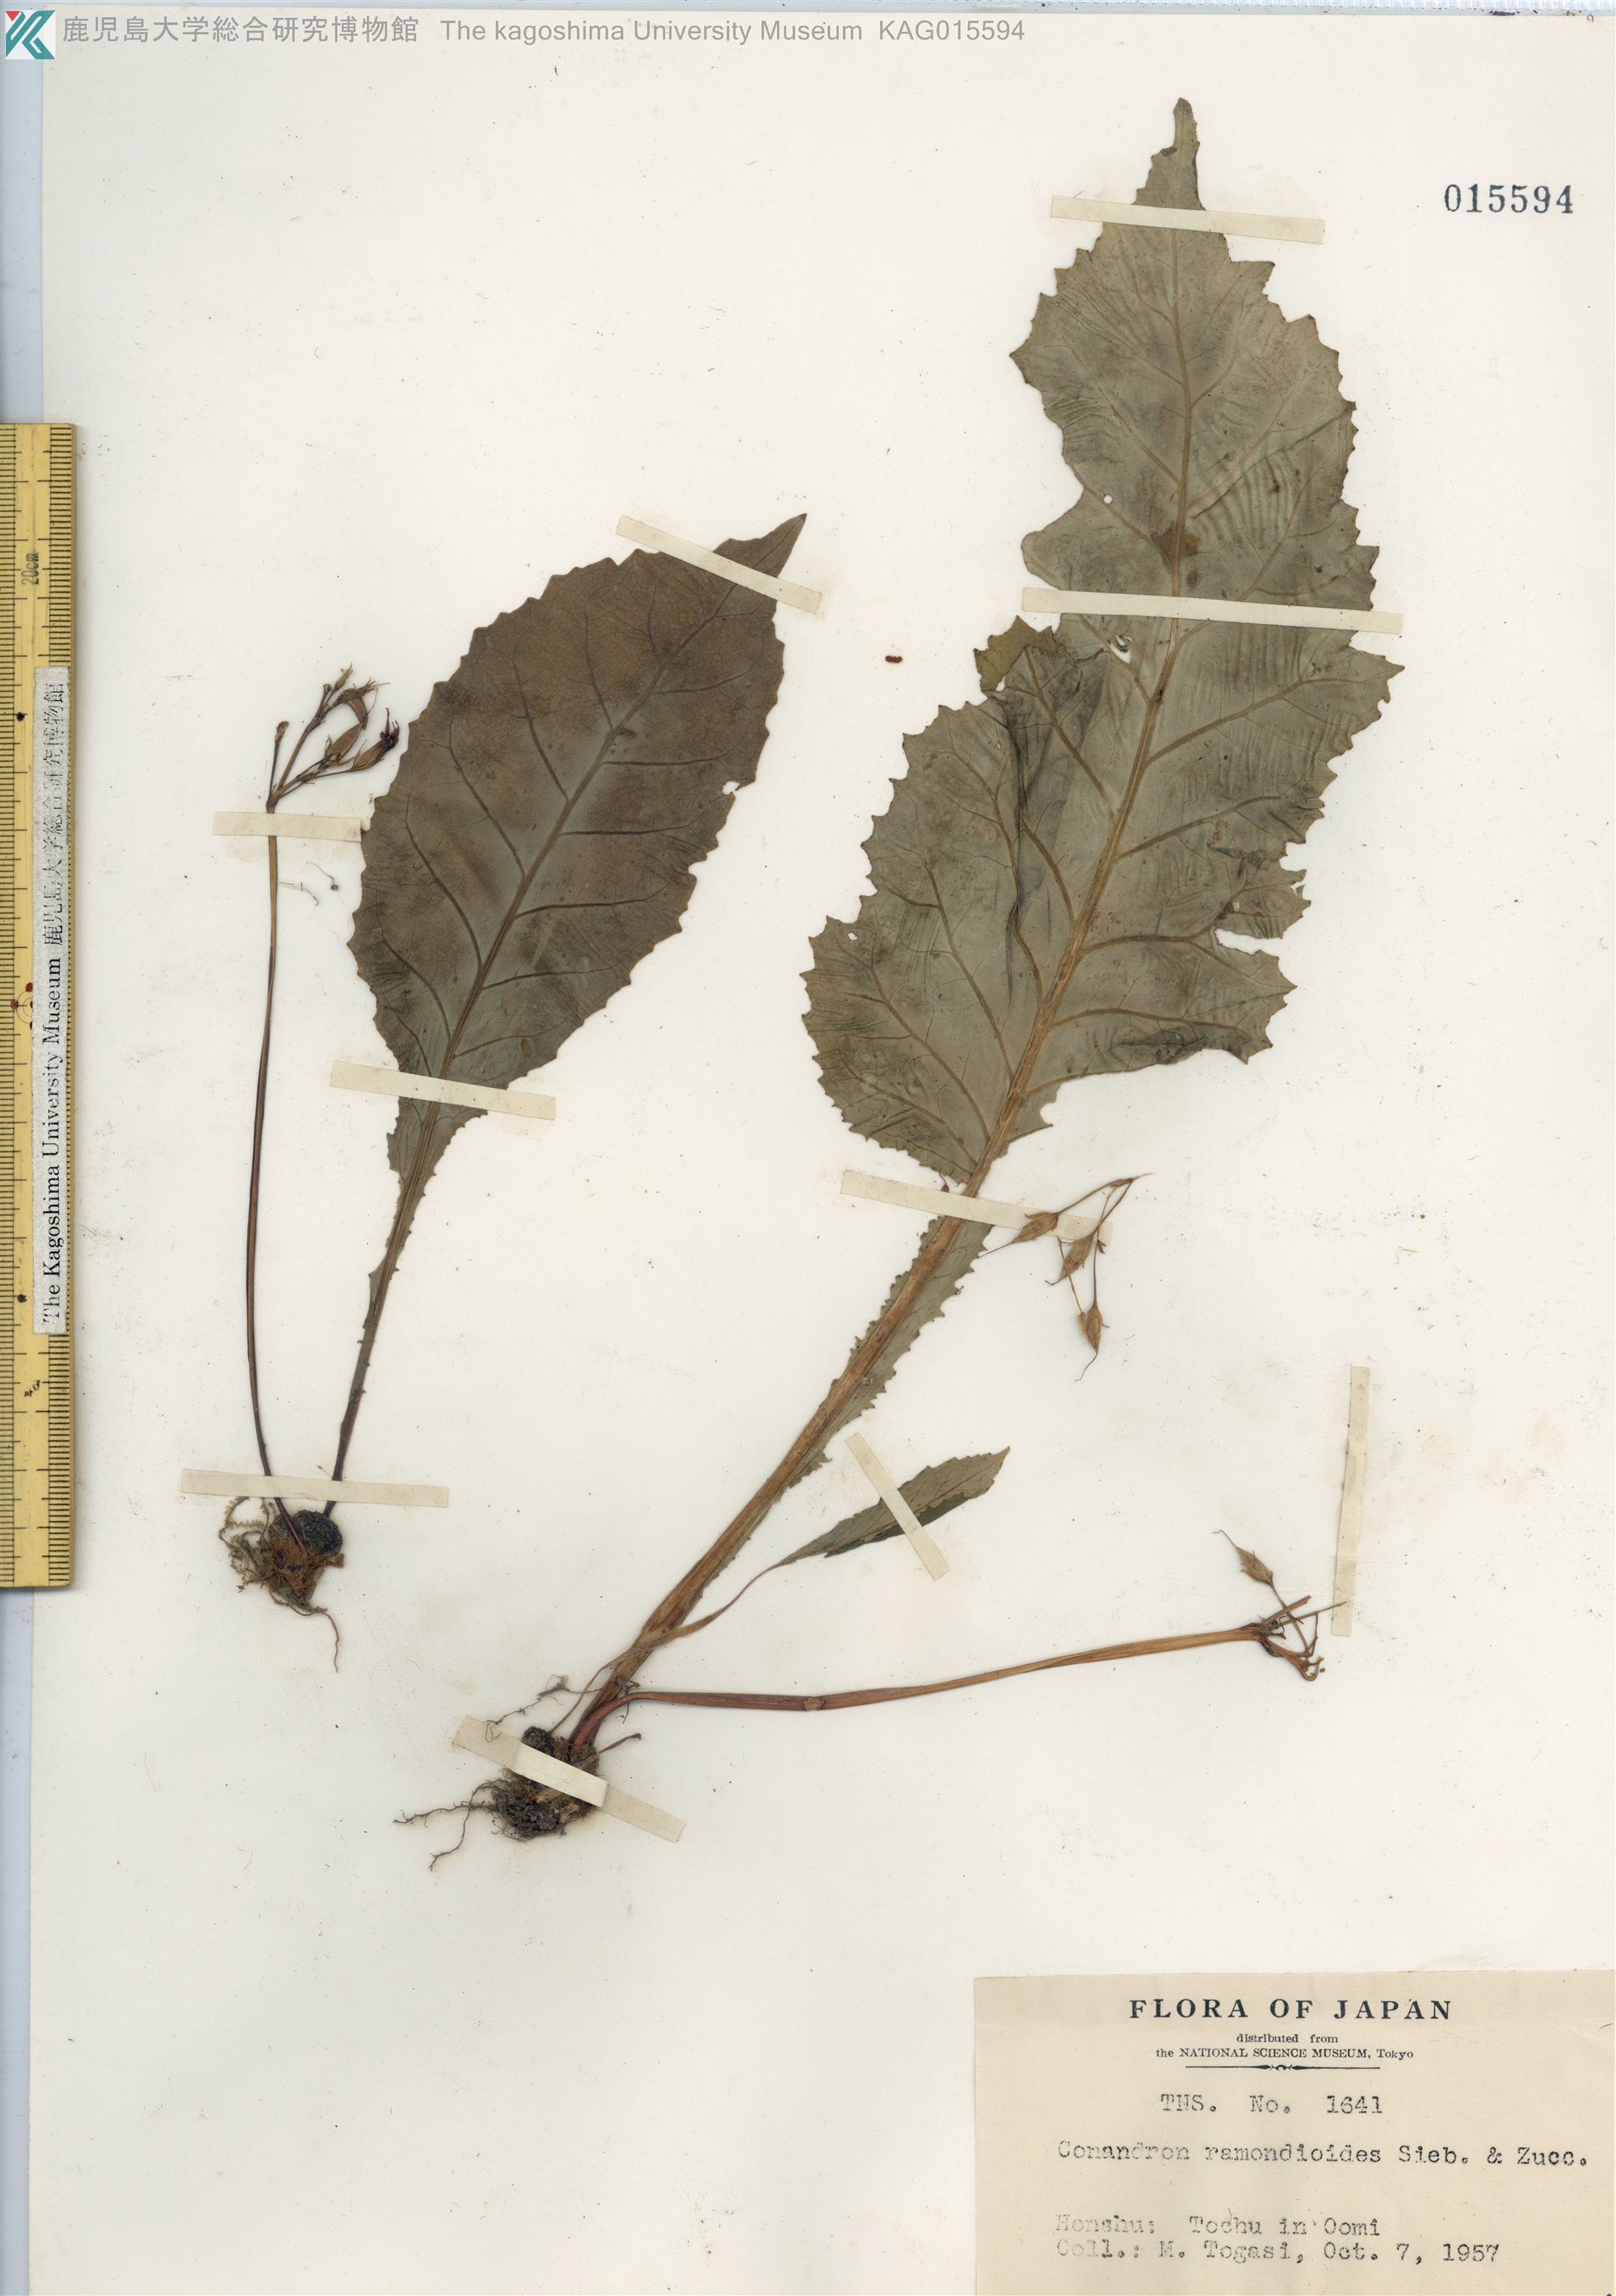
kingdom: Plantae
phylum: Tracheophyta
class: Magnoliopsida
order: Lamiales
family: Gesneriaceae
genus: Conandron
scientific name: Conandron ramondioides
